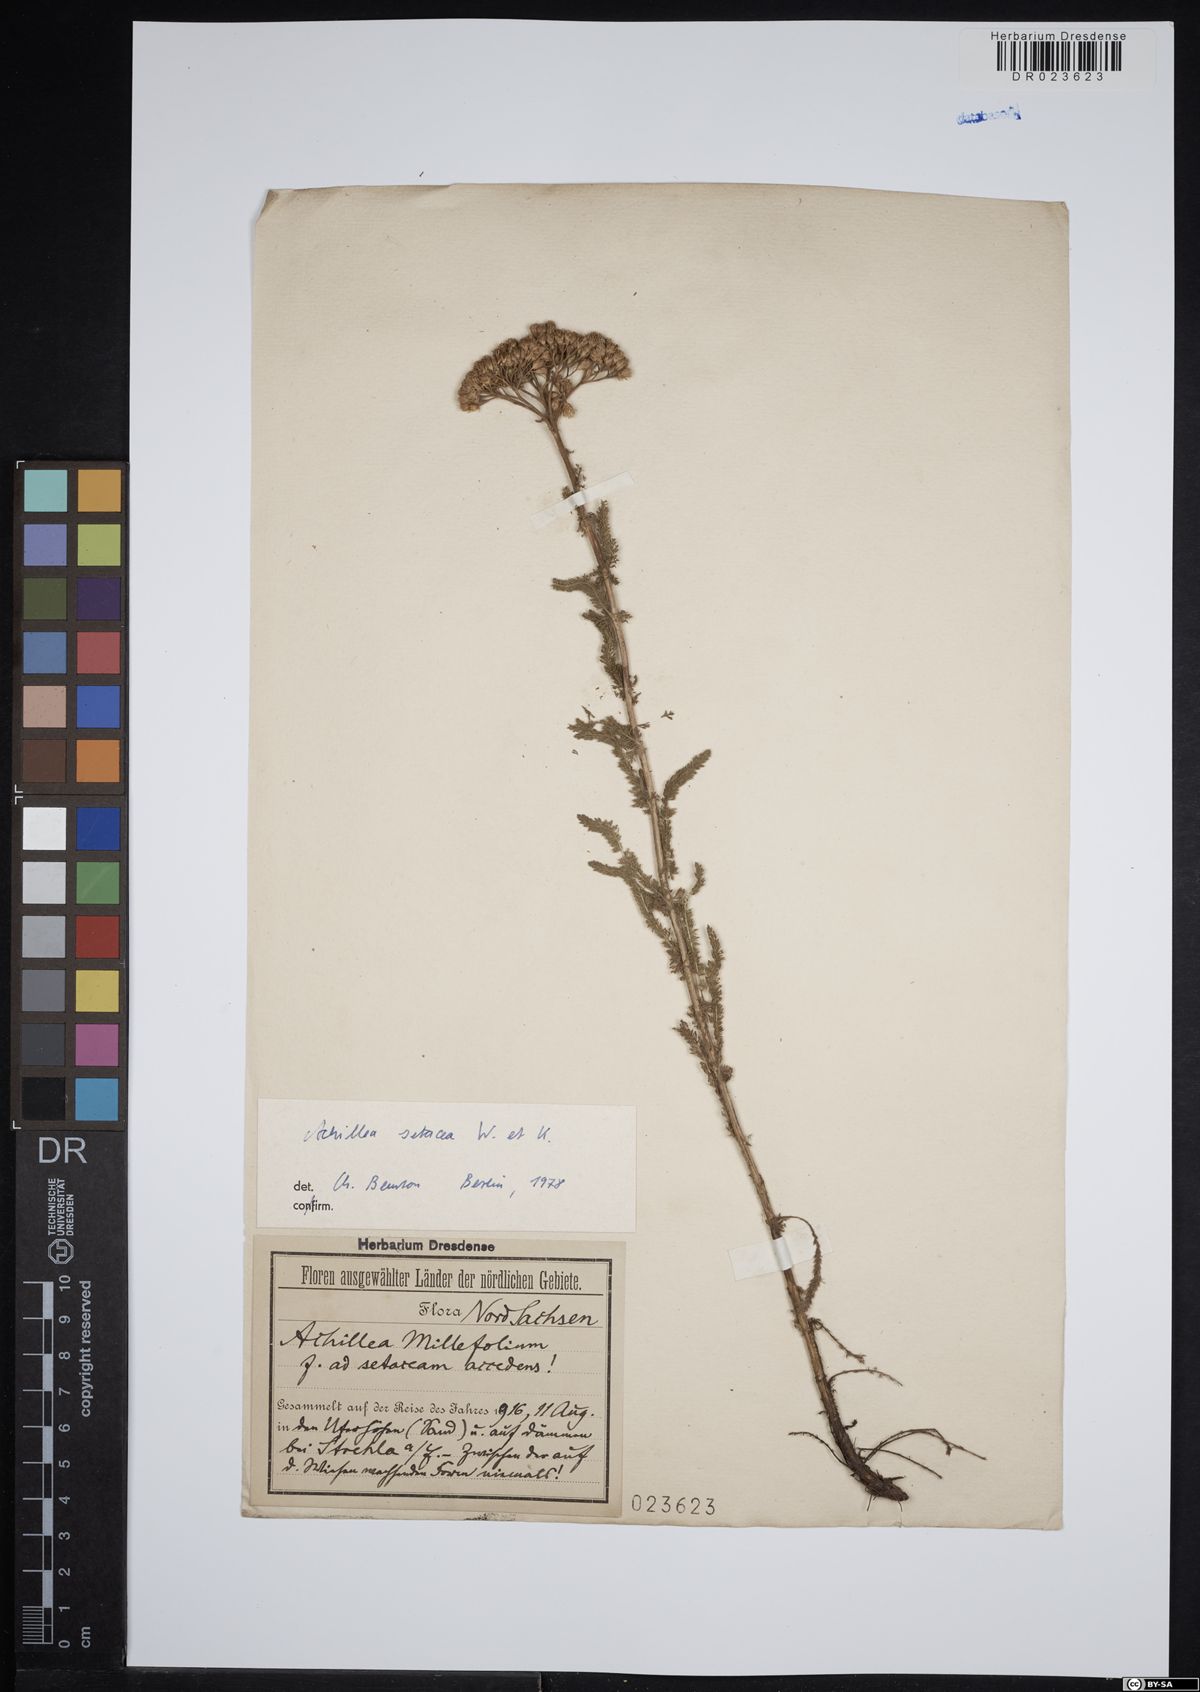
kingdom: Plantae
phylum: Tracheophyta
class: Magnoliopsida
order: Asterales
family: Asteraceae
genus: Achillea
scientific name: Achillea setacea
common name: Bristly yarrow
